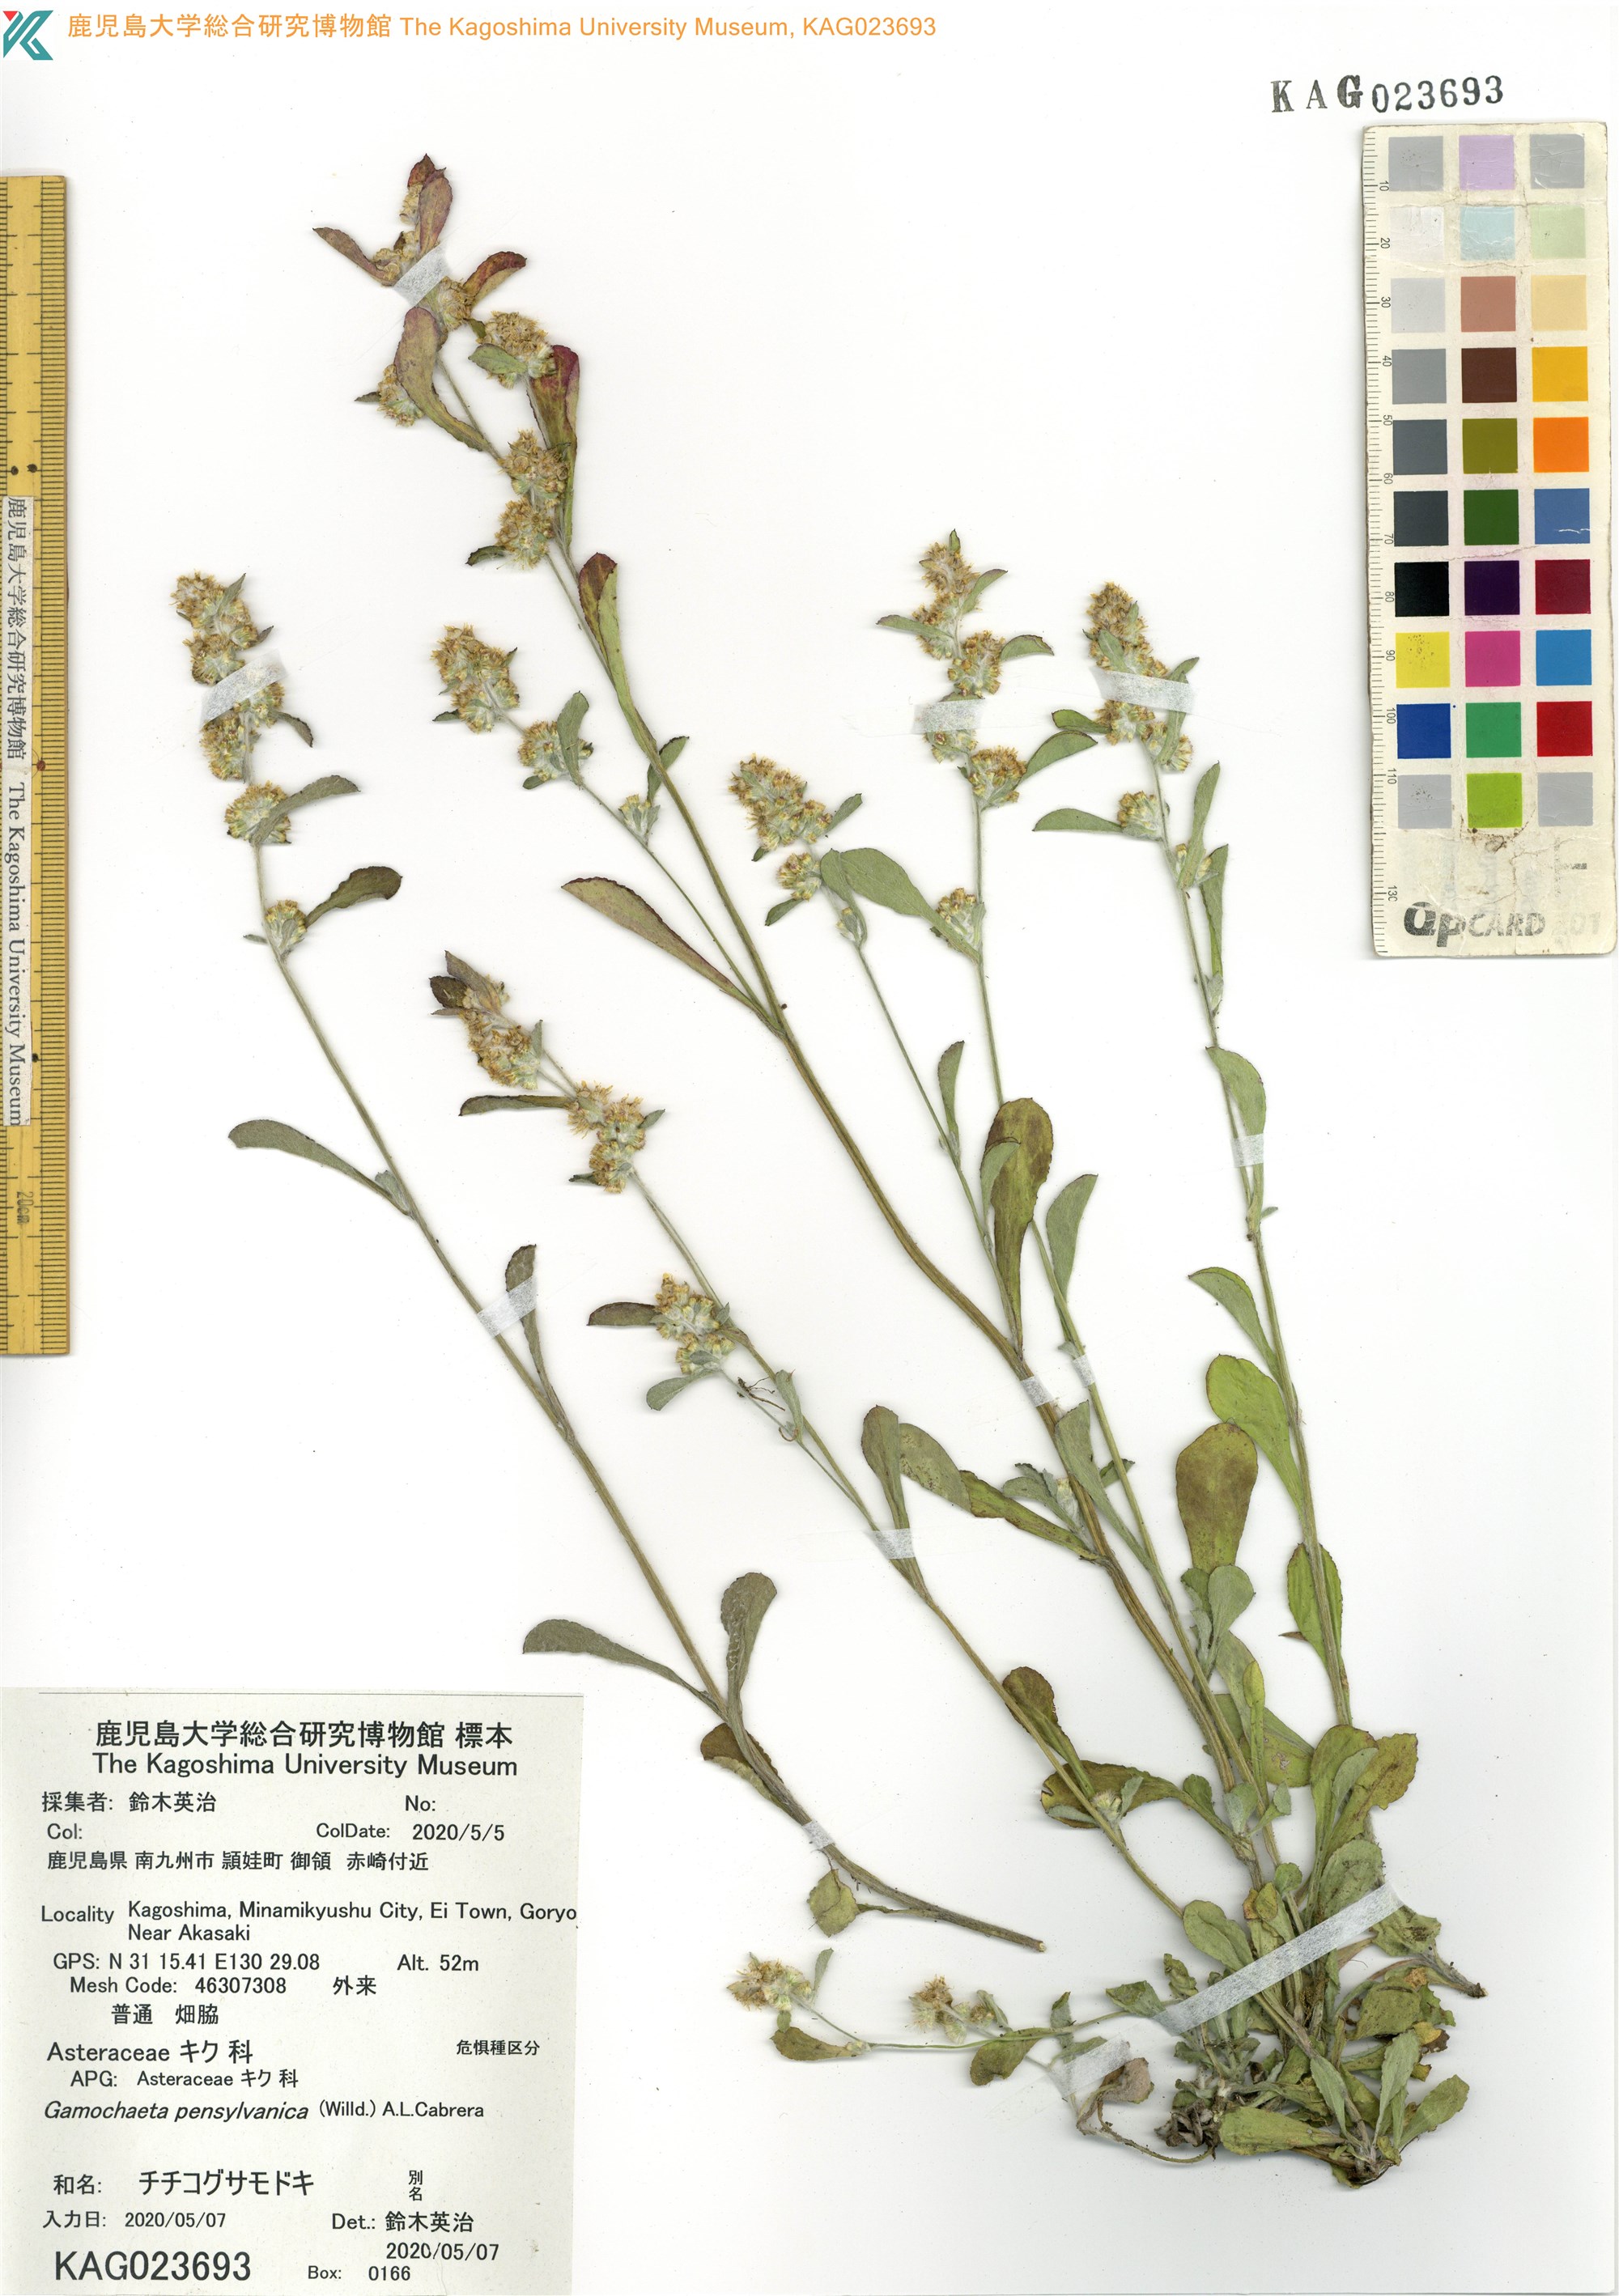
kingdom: Plantae
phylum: Tracheophyta
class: Magnoliopsida
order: Asterales
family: Asteraceae
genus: Gamochaeta
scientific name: Gamochaeta pensylvanica
